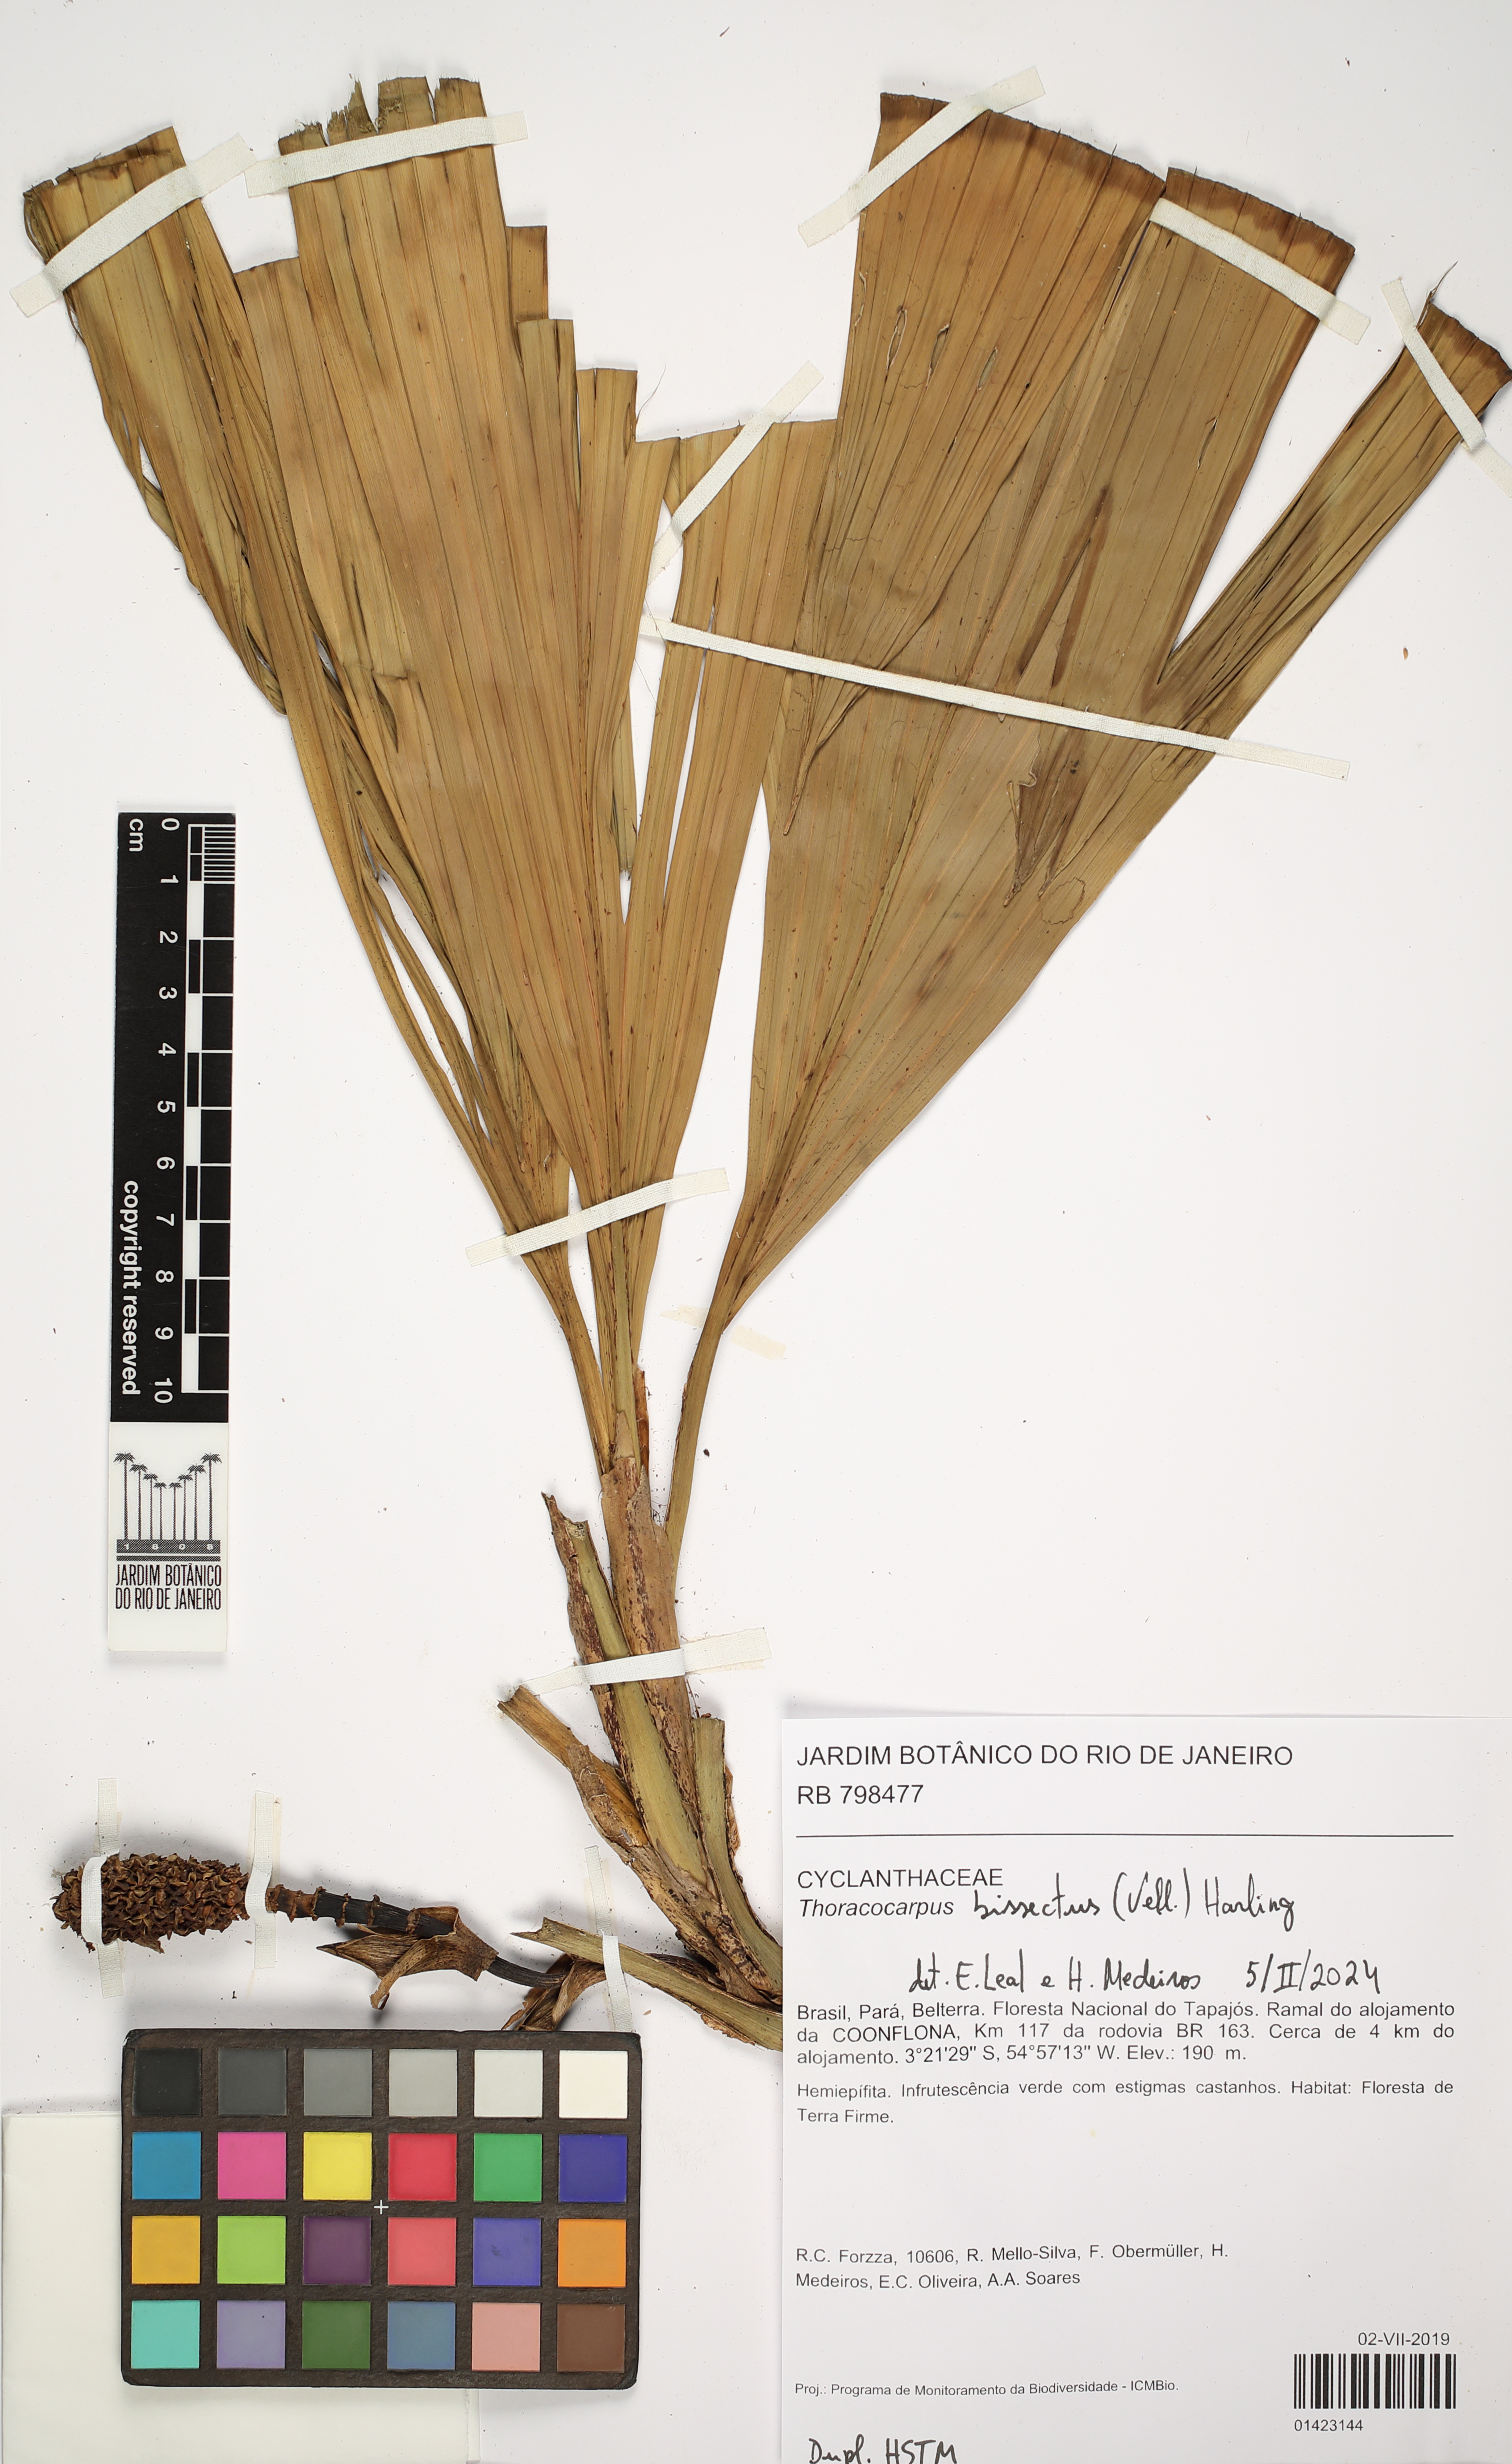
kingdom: Plantae
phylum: Tracheophyta
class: Liliopsida
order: Pandanales
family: Cyclanthaceae
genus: Thoracocarpus
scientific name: Thoracocarpus bissectus
